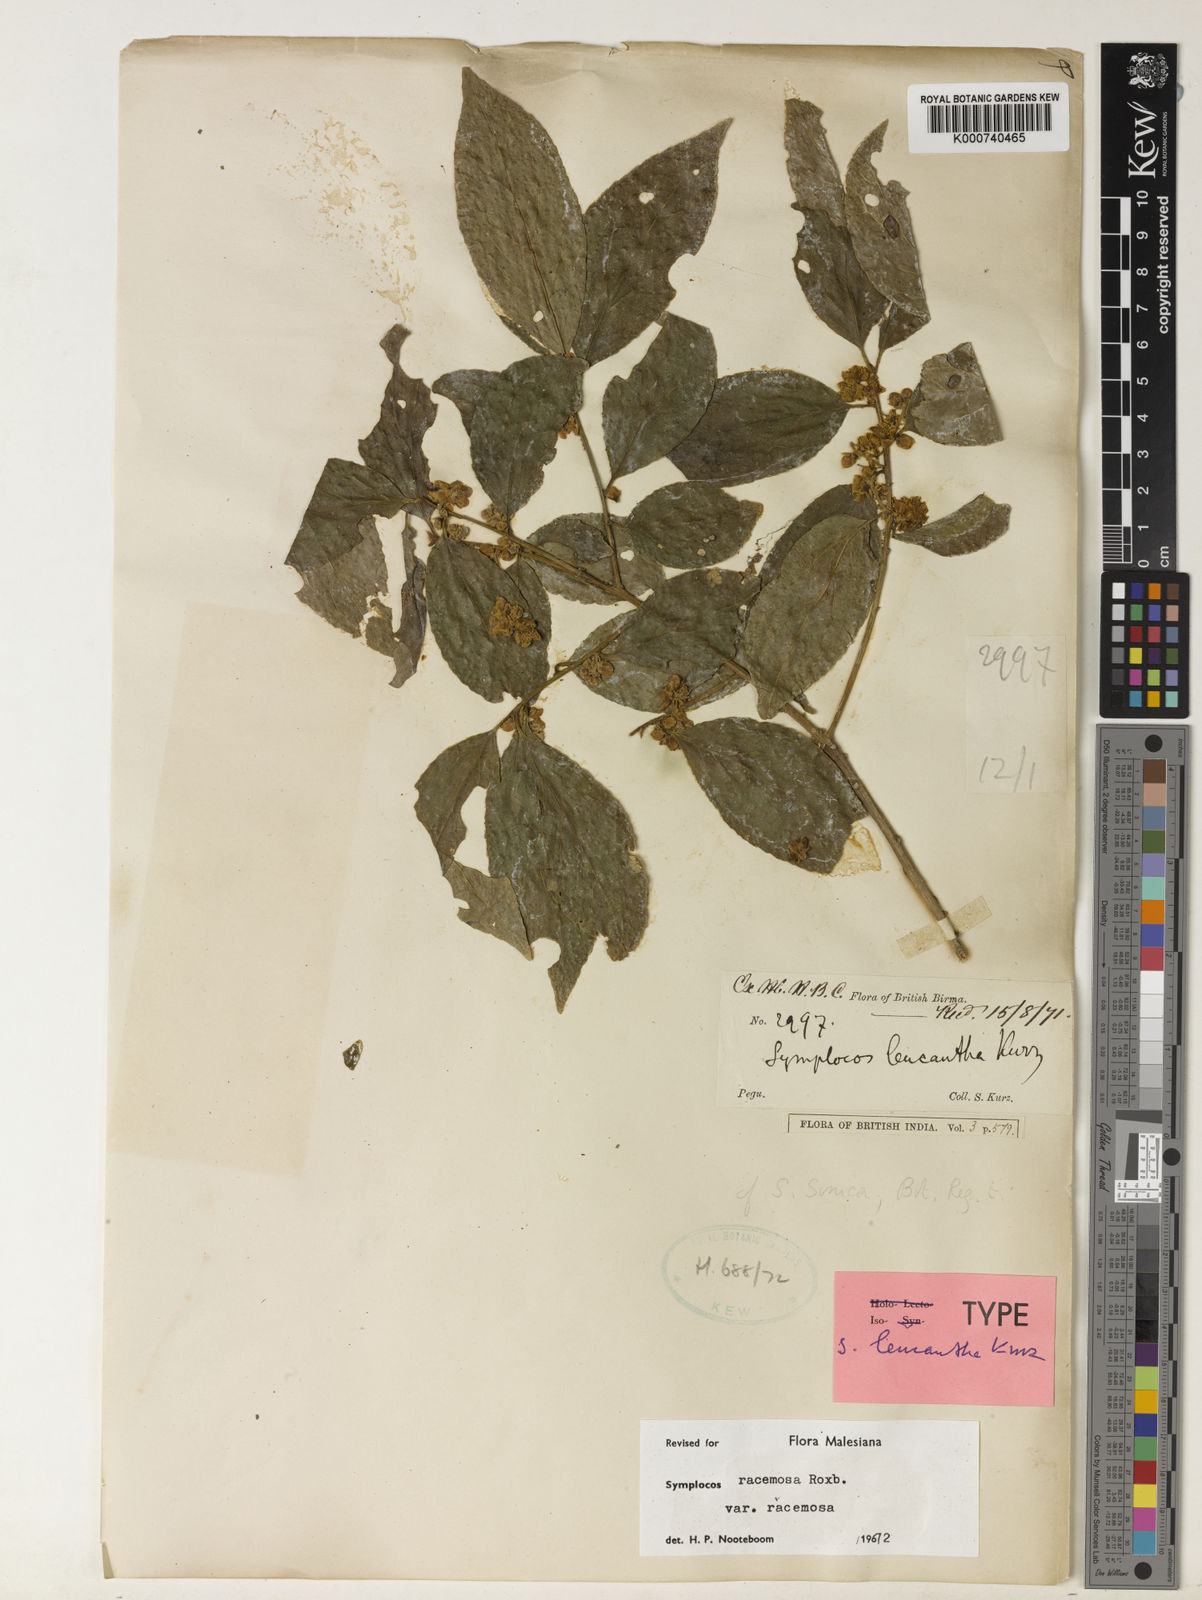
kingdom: Plantae
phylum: Tracheophyta
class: Magnoliopsida
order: Ericales
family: Symplocaceae
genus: Symplocos
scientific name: Symplocos racemosa
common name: Lodhtree
